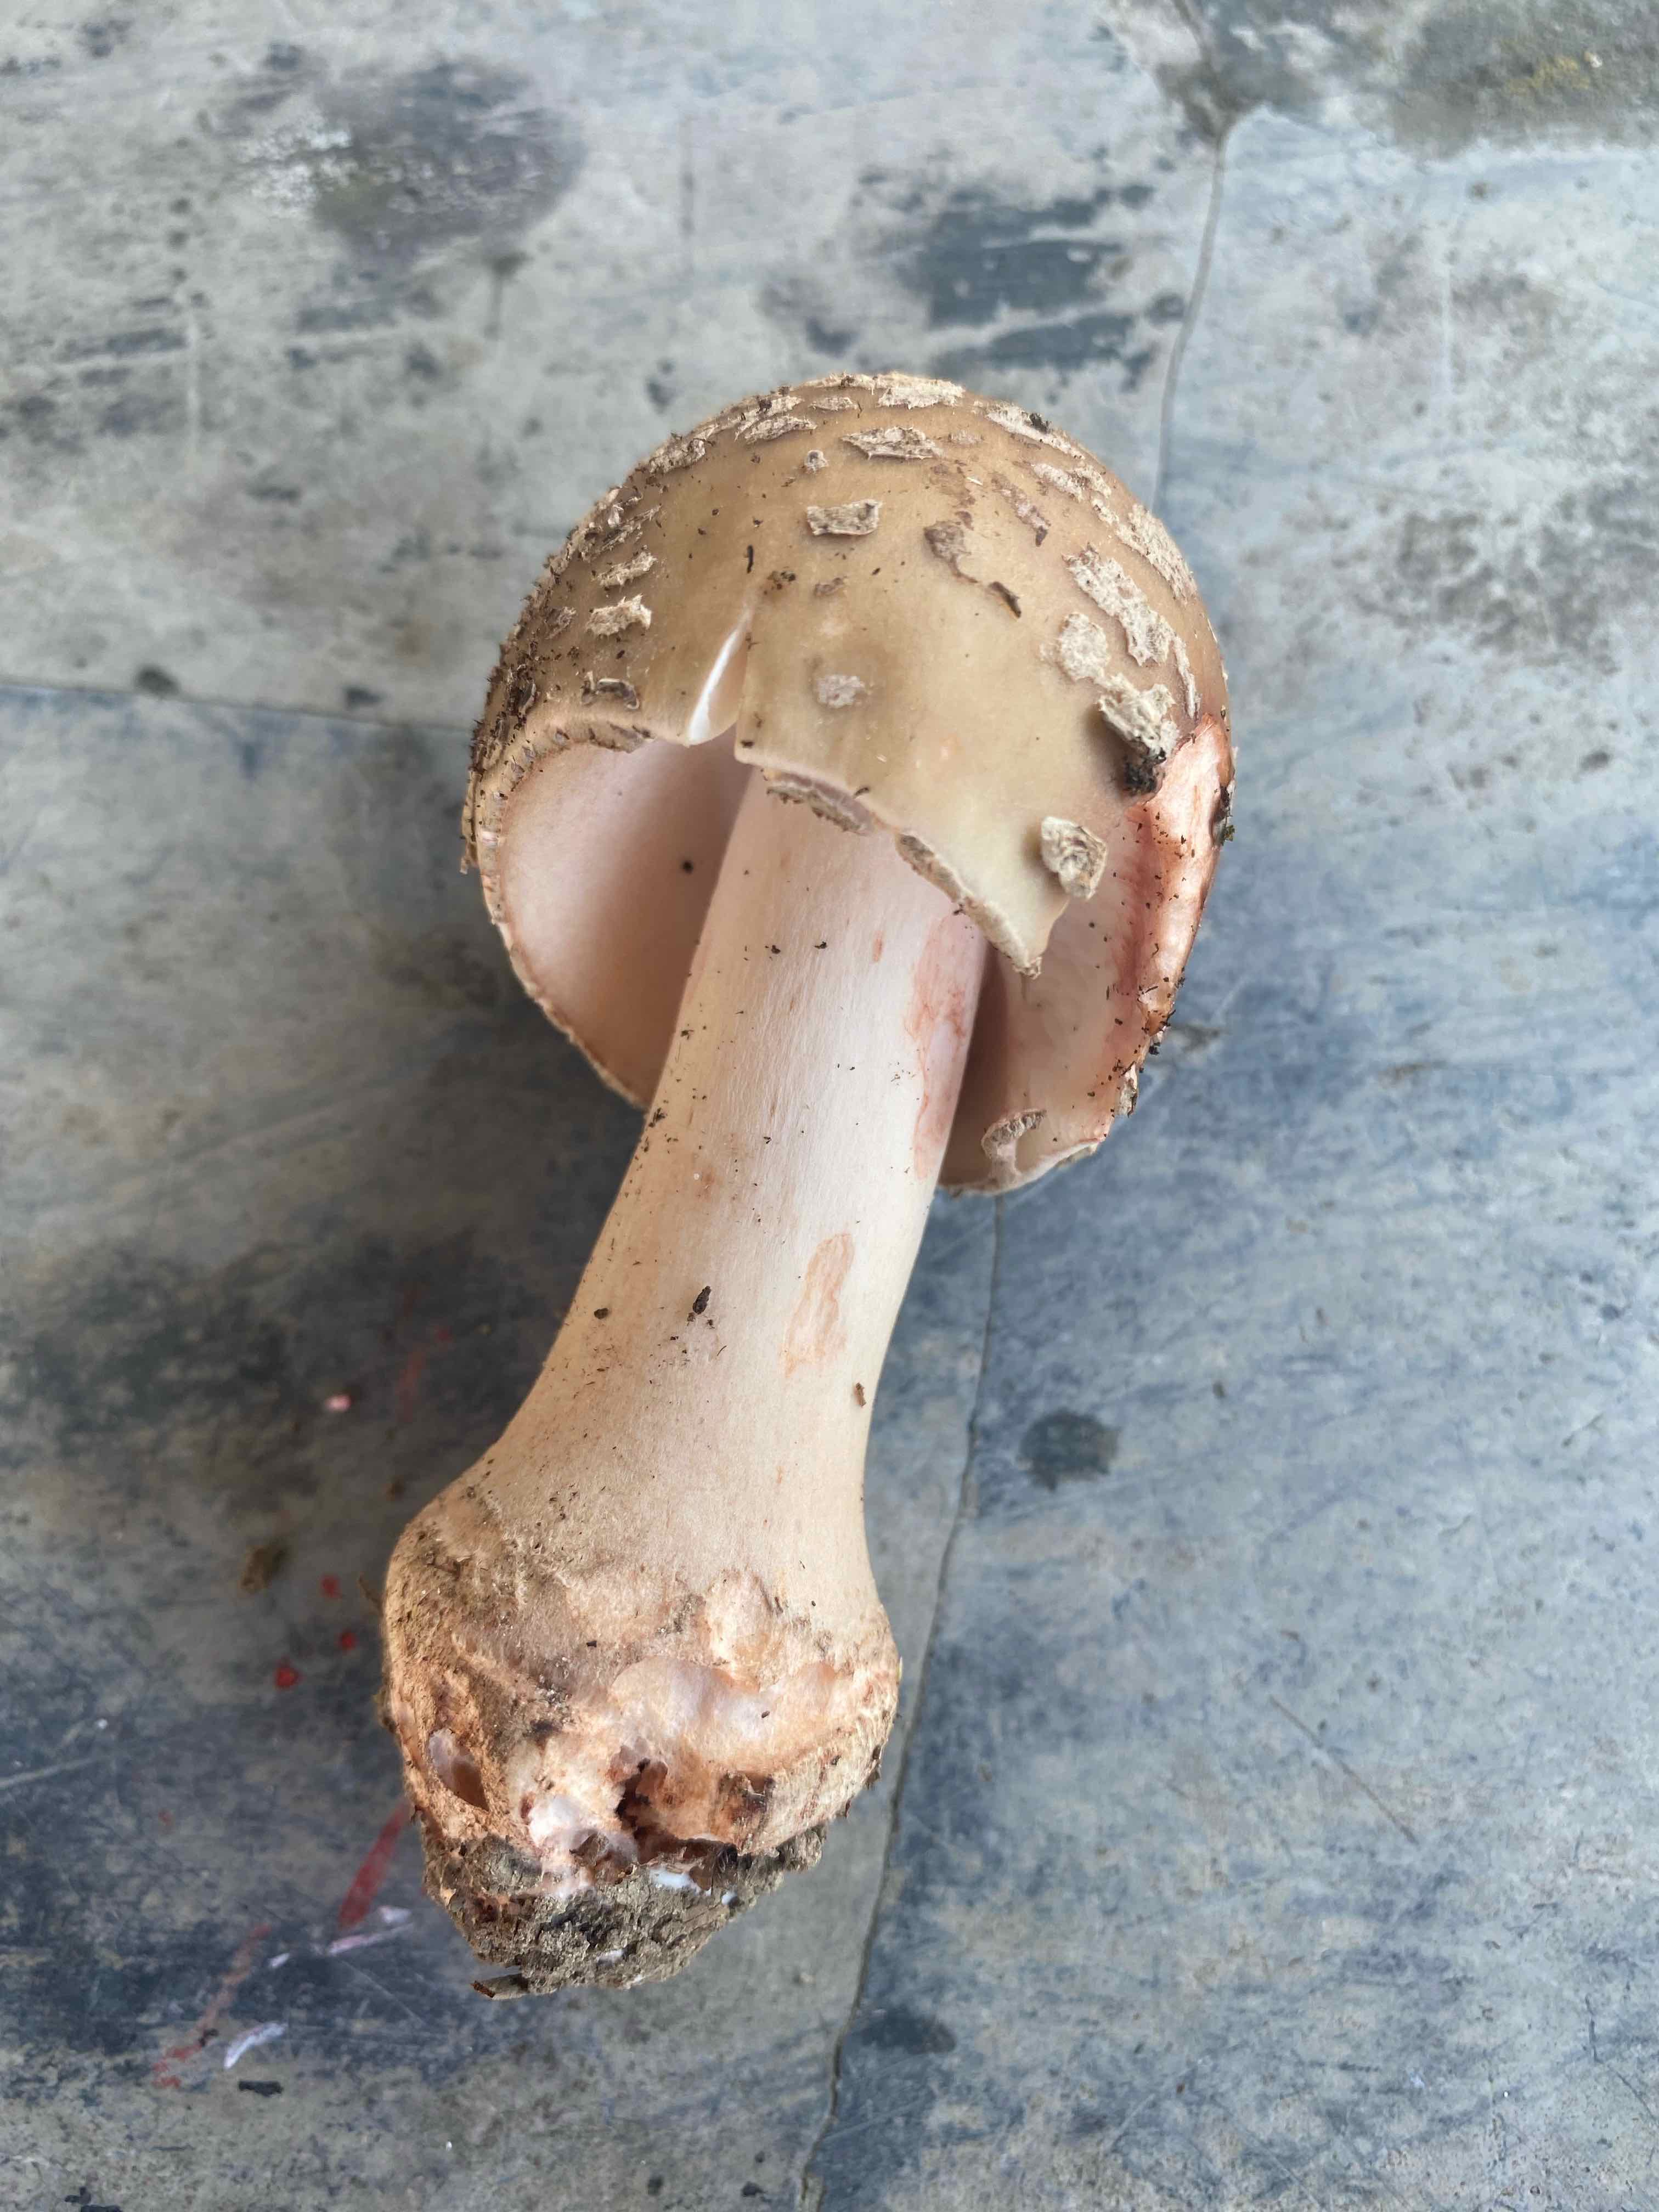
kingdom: Fungi
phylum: Basidiomycota
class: Agaricomycetes
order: Agaricales
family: Amanitaceae
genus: Amanita
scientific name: Amanita rubescens
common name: rødmende fluesvamp
